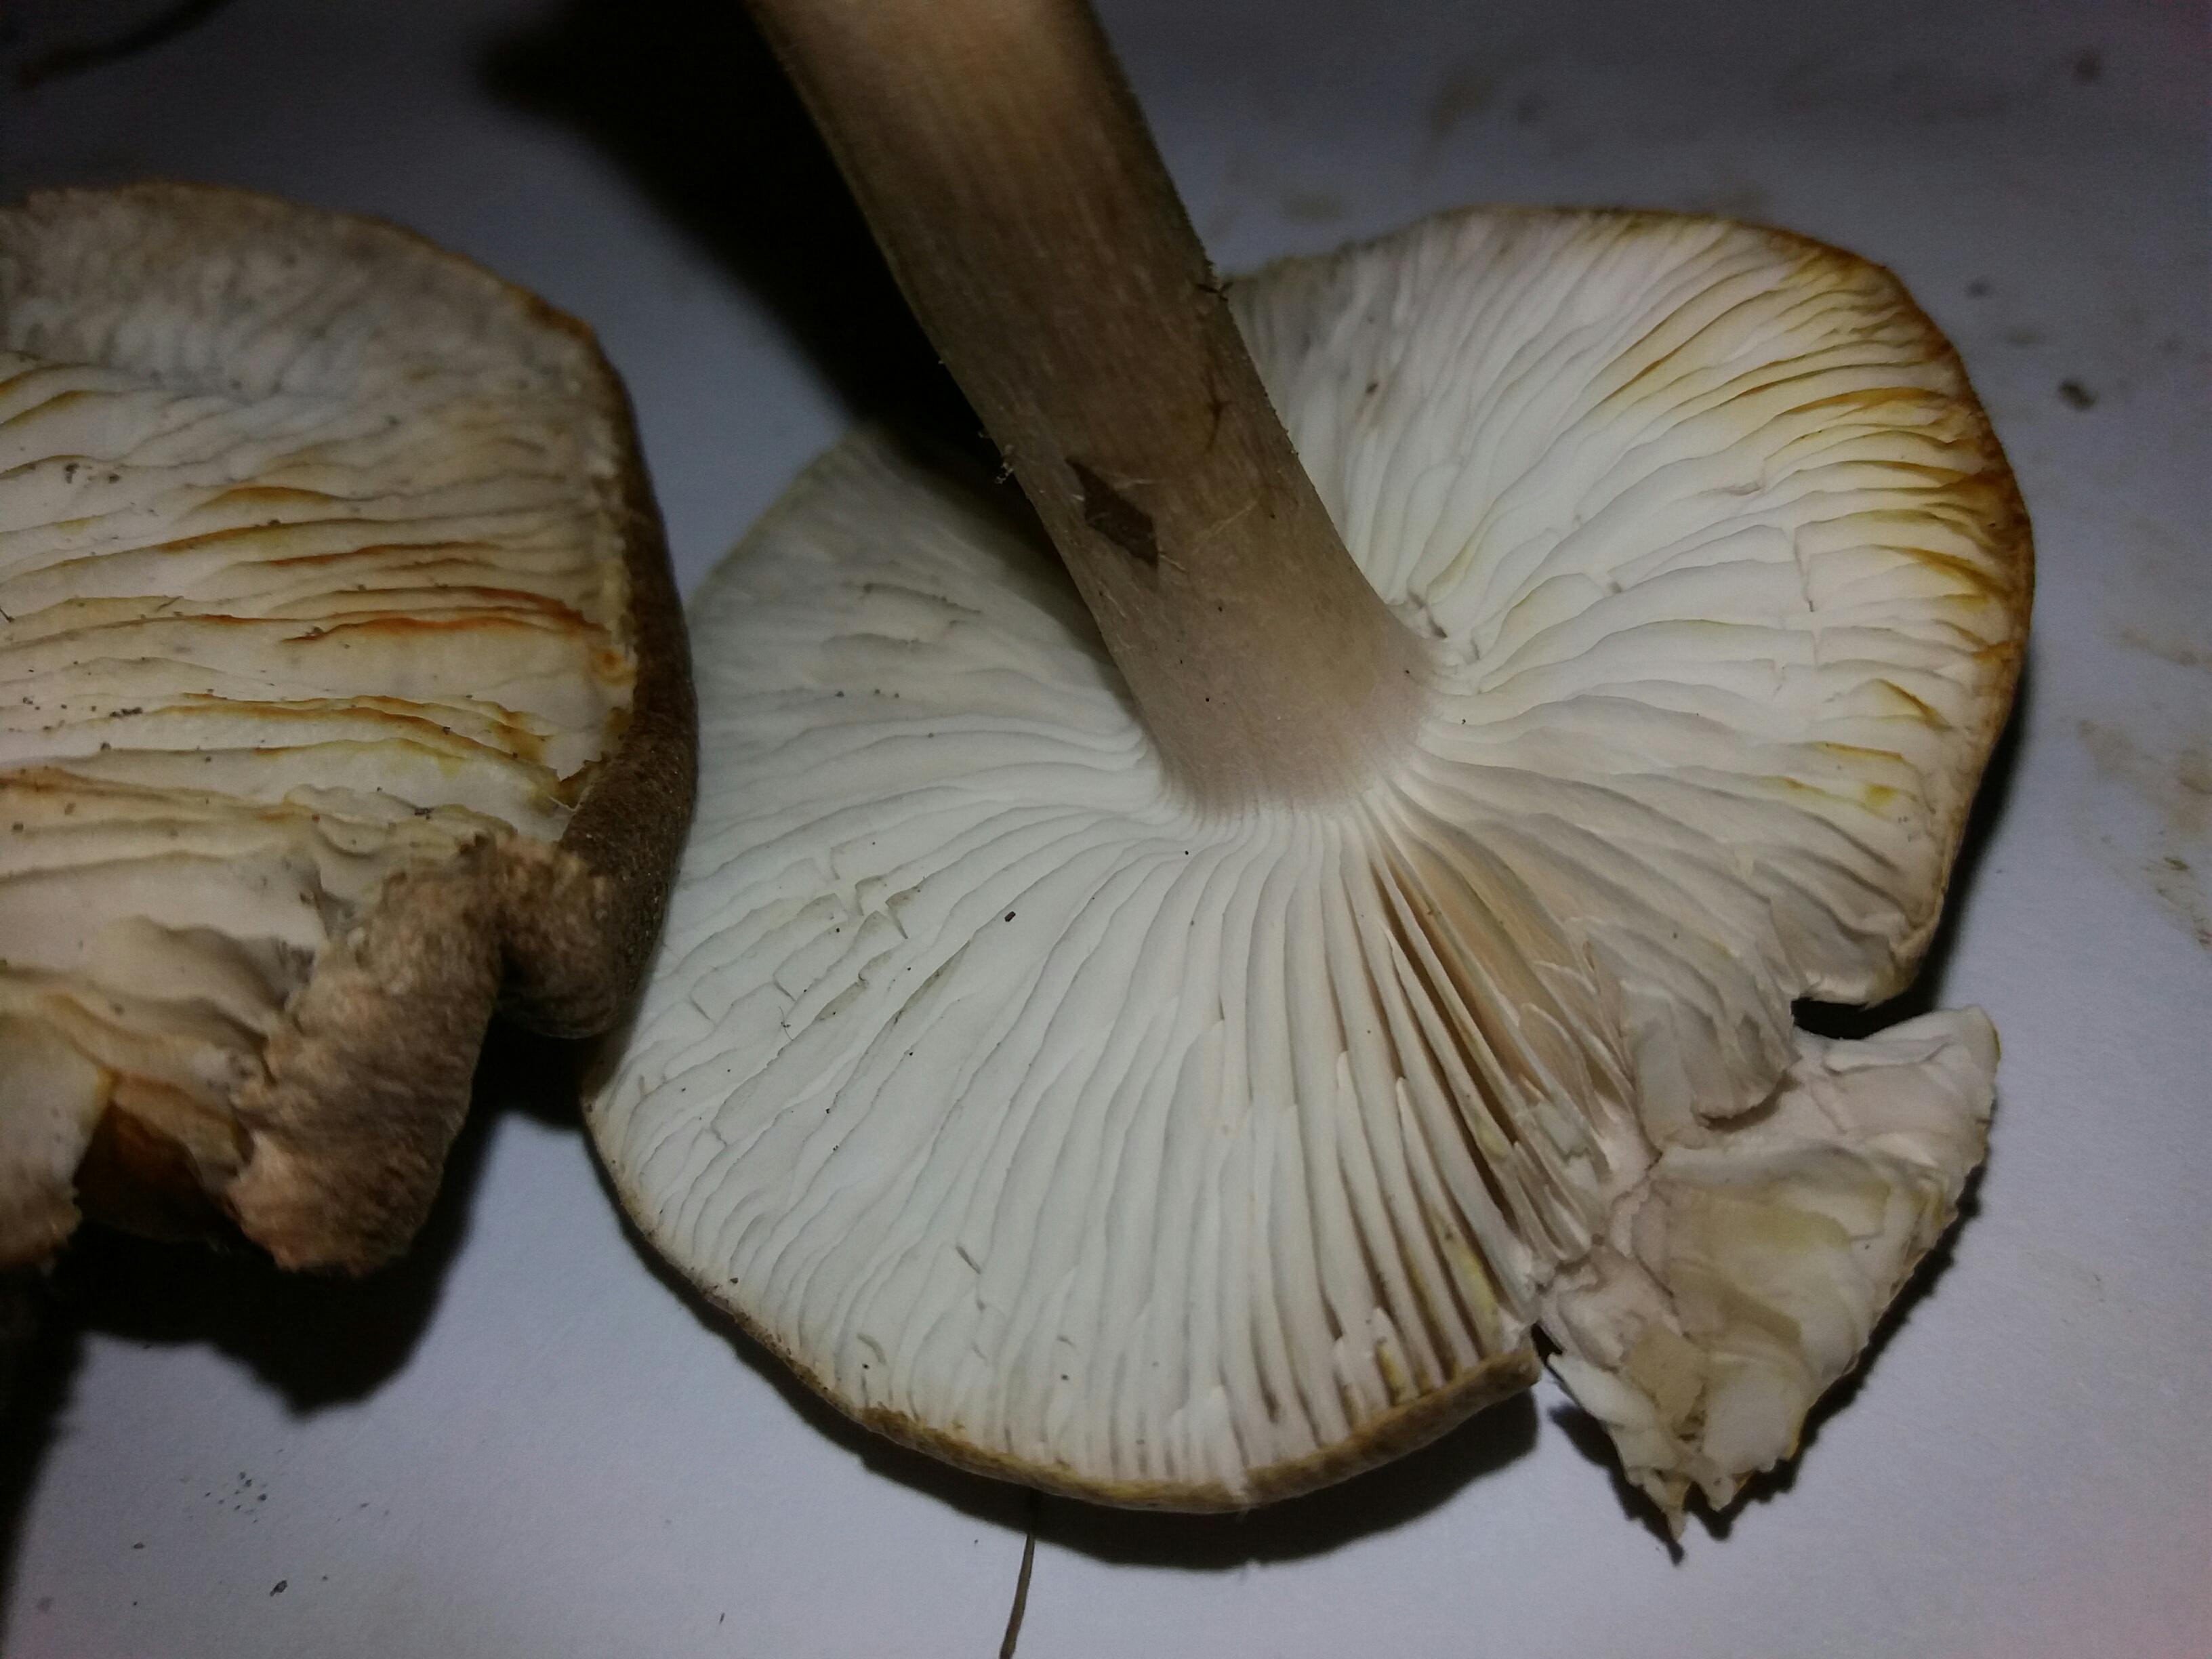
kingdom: Fungi
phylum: Basidiomycota
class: Agaricomycetes
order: Agaricales
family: Tricholomataceae
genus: Tricholoma
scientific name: Tricholoma scalpturatum
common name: gulplettet ridderhat
